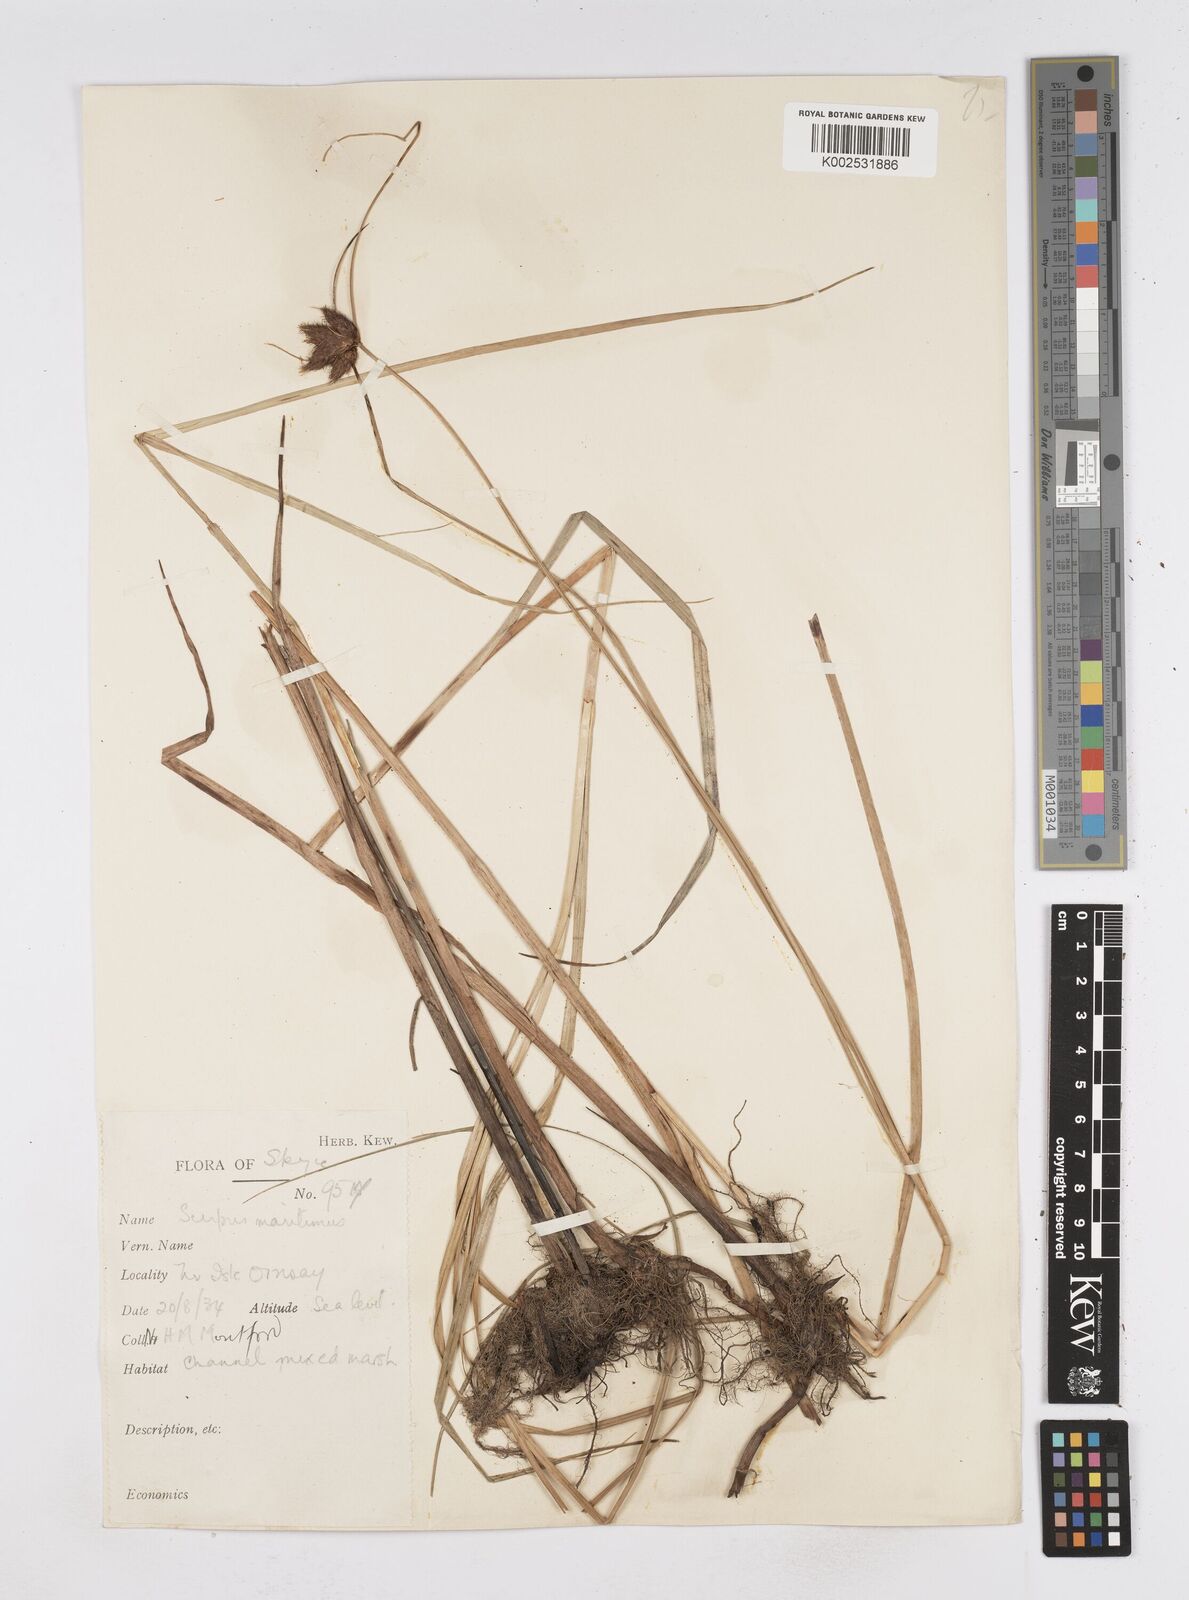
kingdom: Plantae
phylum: Tracheophyta
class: Liliopsida
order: Poales
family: Cyperaceae
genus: Bolboschoenus
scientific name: Bolboschoenus maritimus
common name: Sea club-rush
